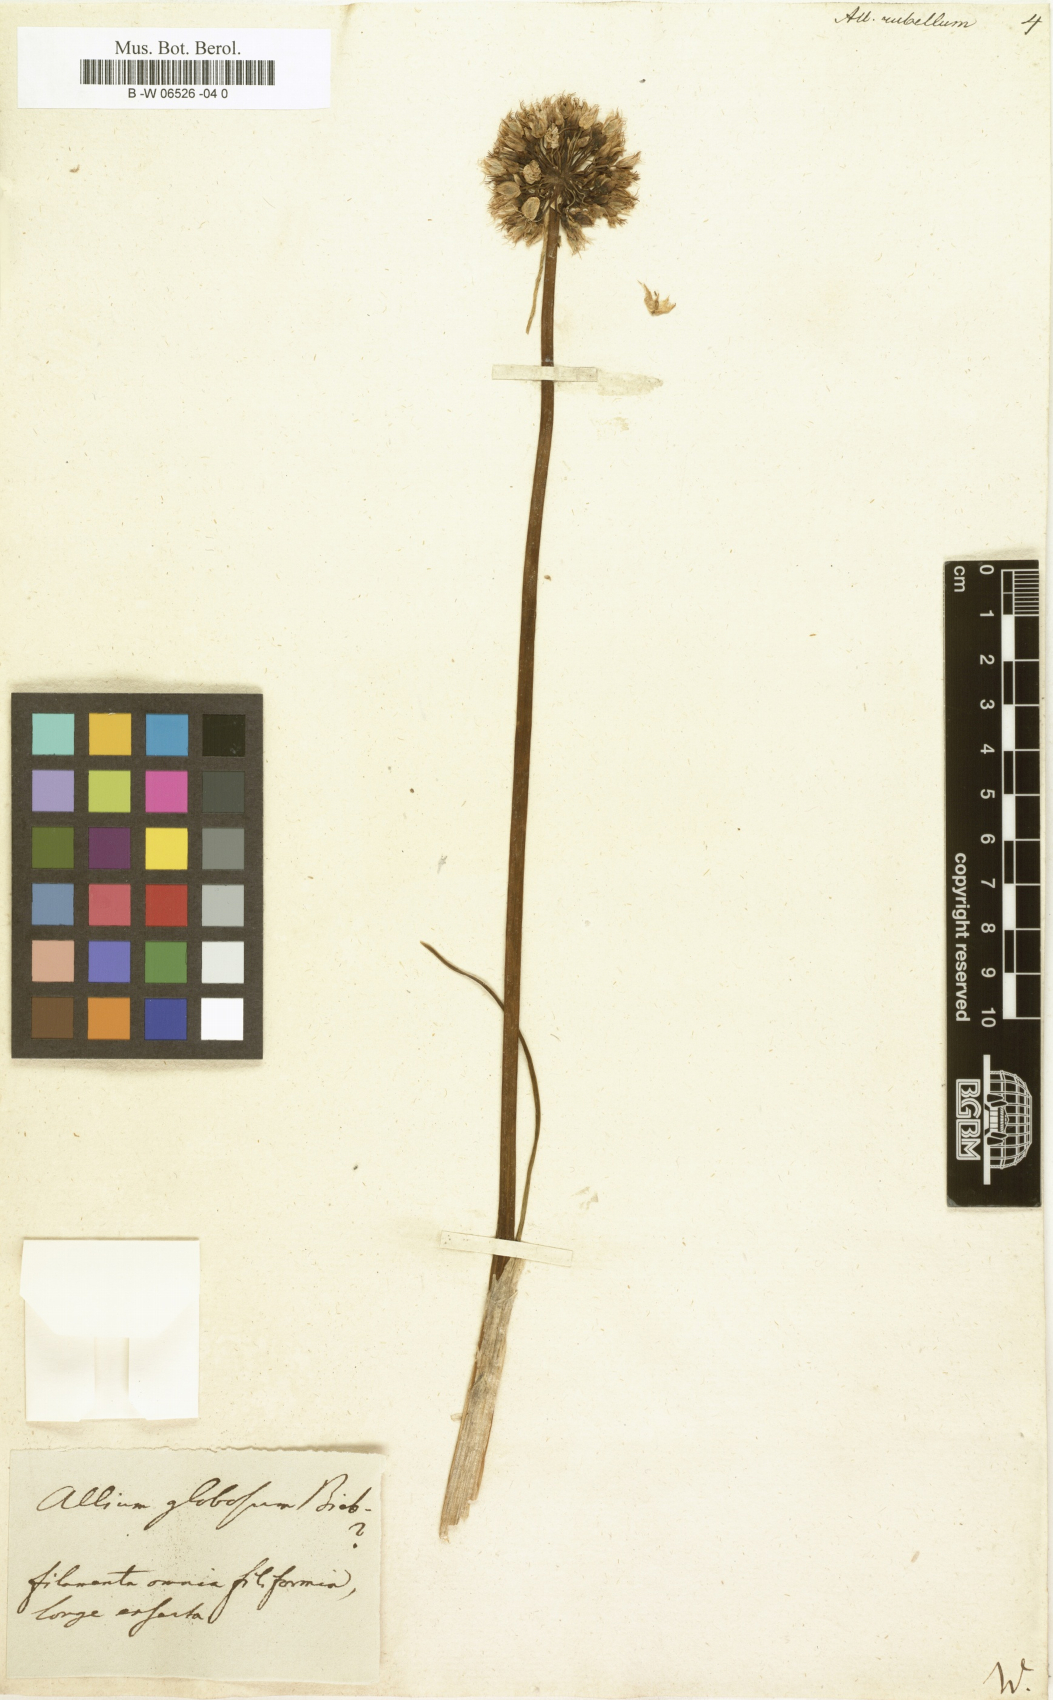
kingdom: Plantae
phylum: Tracheophyta
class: Liliopsida
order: Asparagales
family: Amaryllidaceae
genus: Allium
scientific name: Allium rubellum
